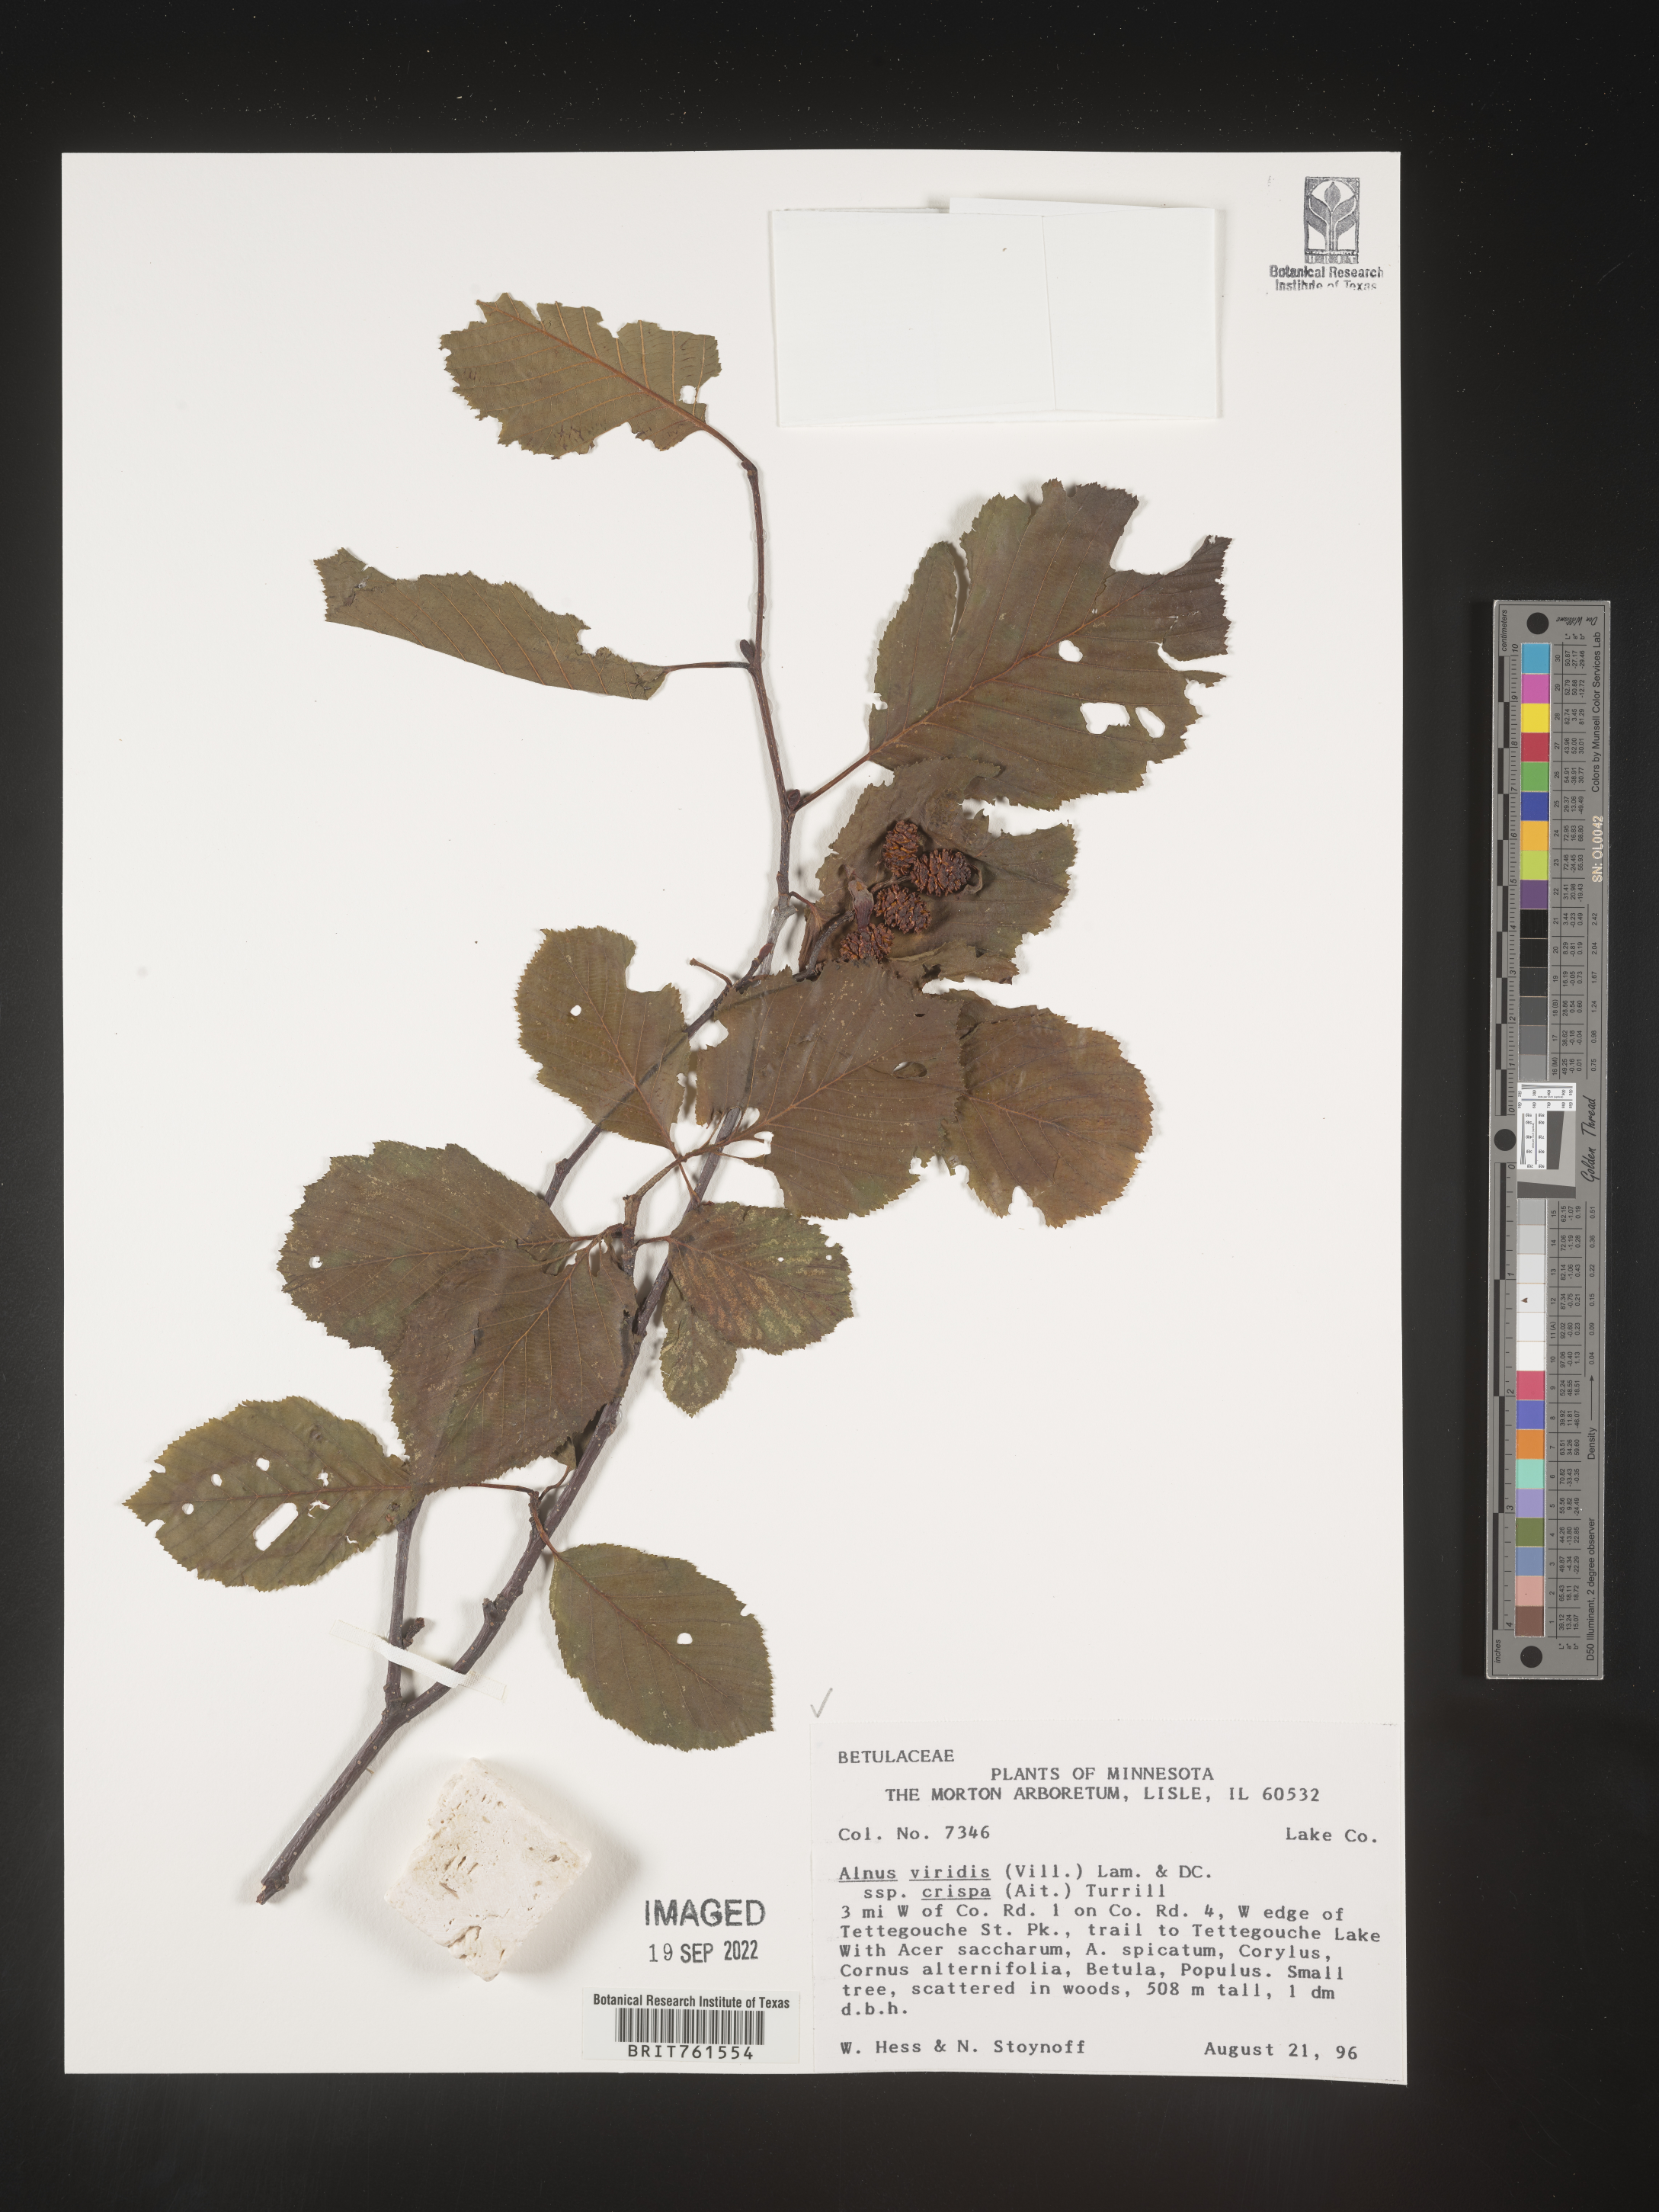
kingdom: Plantae
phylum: Tracheophyta
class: Magnoliopsida
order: Fagales
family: Betulaceae
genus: Alnus
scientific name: Alnus alnobetula
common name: Green alder
